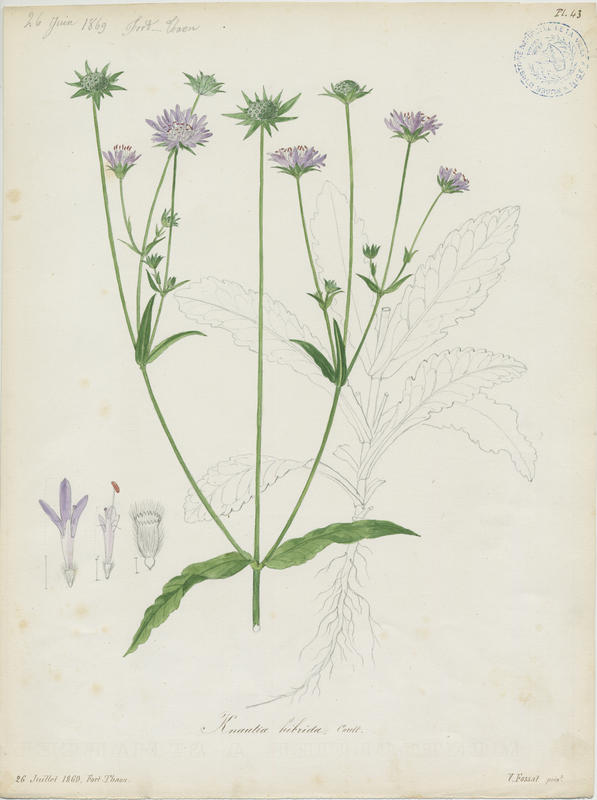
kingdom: Plantae
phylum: Tracheophyta
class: Magnoliopsida
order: Dipsacales
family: Caprifoliaceae
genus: Knautia
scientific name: Knautia integrifolia
